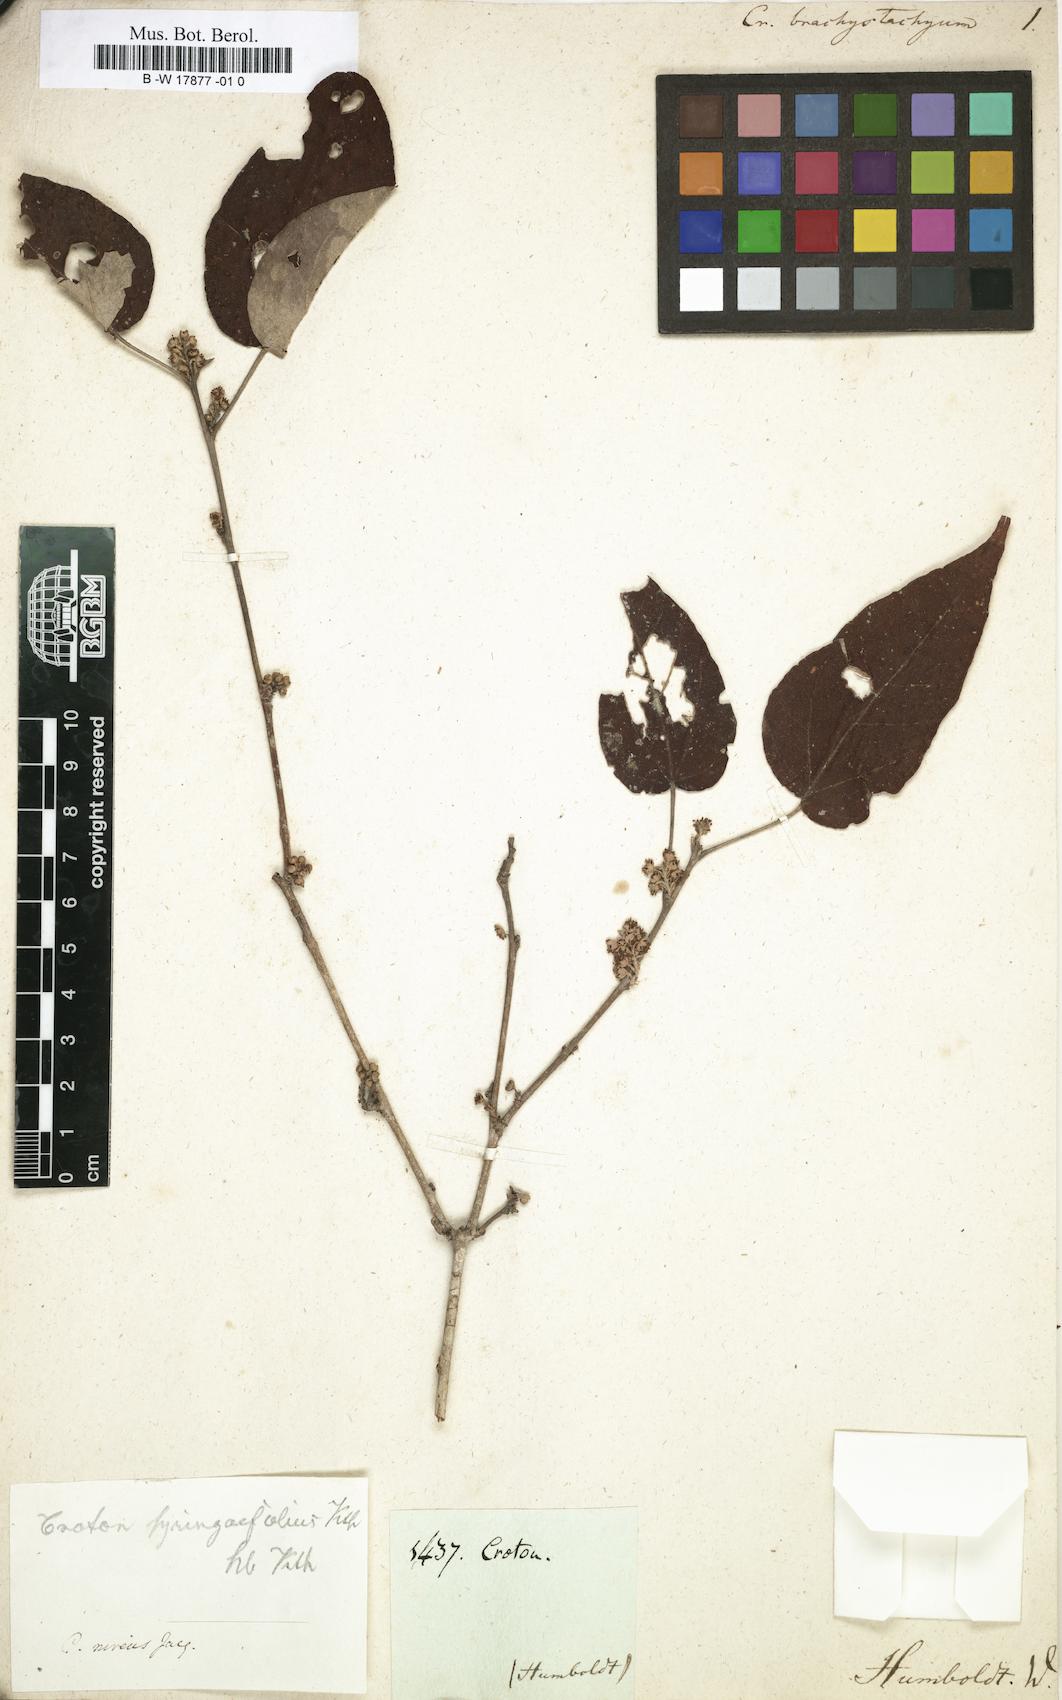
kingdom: Plantae
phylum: Tracheophyta
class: Magnoliopsida
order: Malpighiales
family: Euphorbiaceae
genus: Croton
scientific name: Croton
